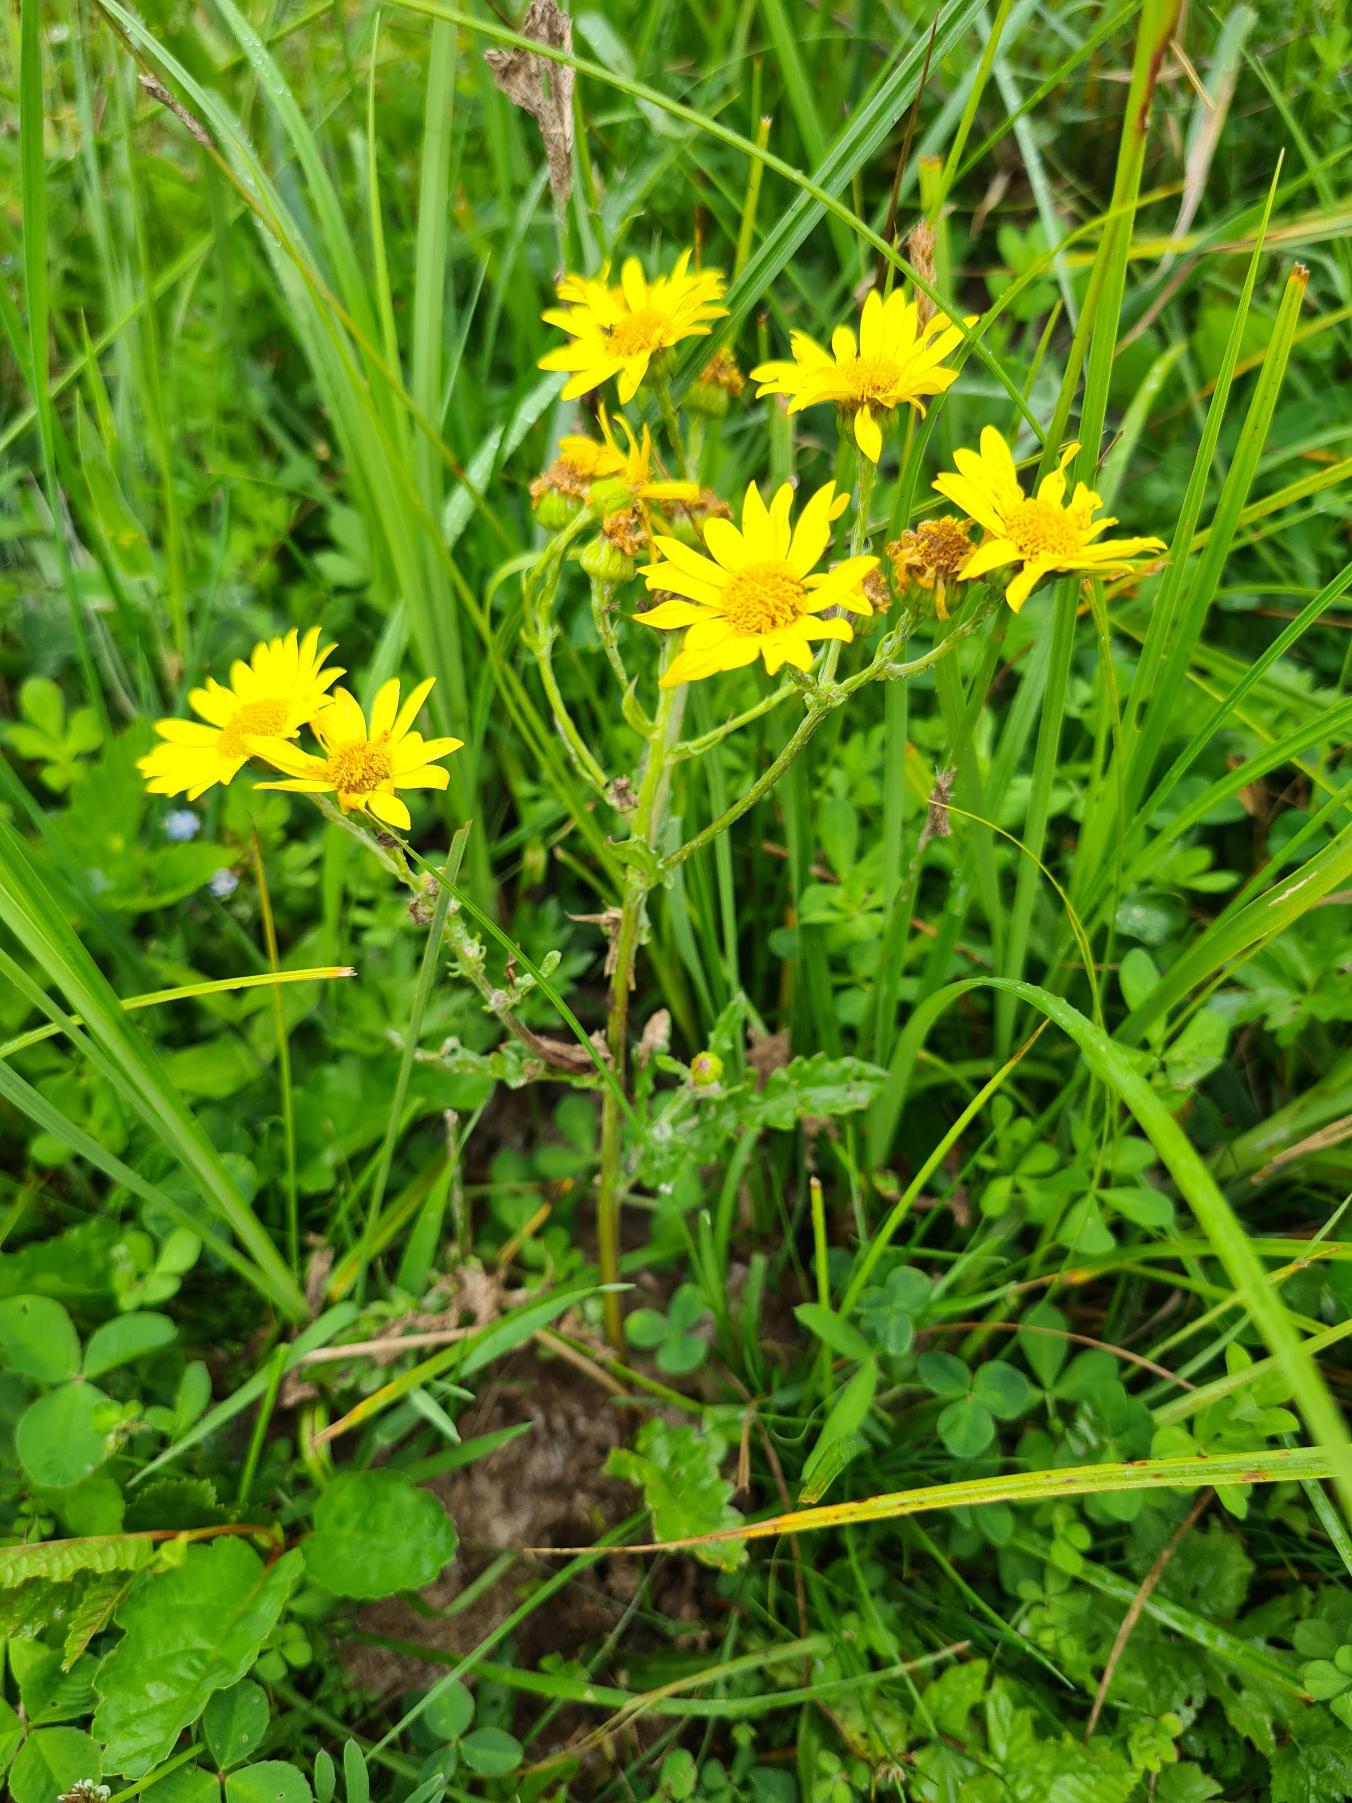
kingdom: Plantae
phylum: Tracheophyta
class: Magnoliopsida
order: Asterales
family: Asteraceae
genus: Jacobaea
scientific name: Jacobaea aquatica
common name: Vand-brandbæger
